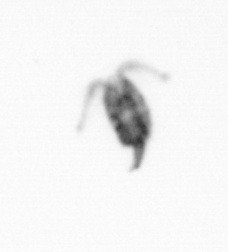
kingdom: Animalia
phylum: Arthropoda
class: Copepoda
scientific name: Copepoda
